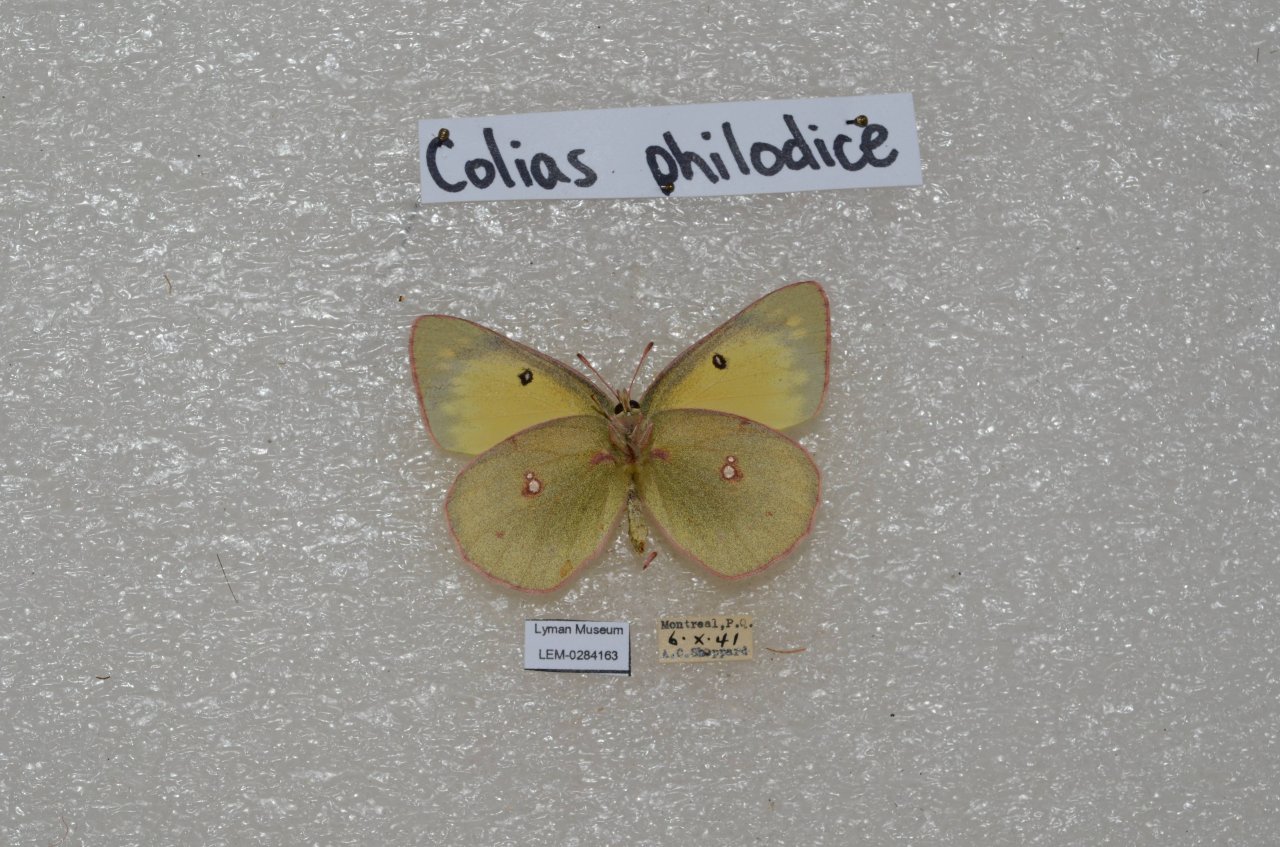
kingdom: Animalia
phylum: Arthropoda
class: Insecta
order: Lepidoptera
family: Pieridae
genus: Colias
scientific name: Colias philodice
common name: Clouded Sulphur
